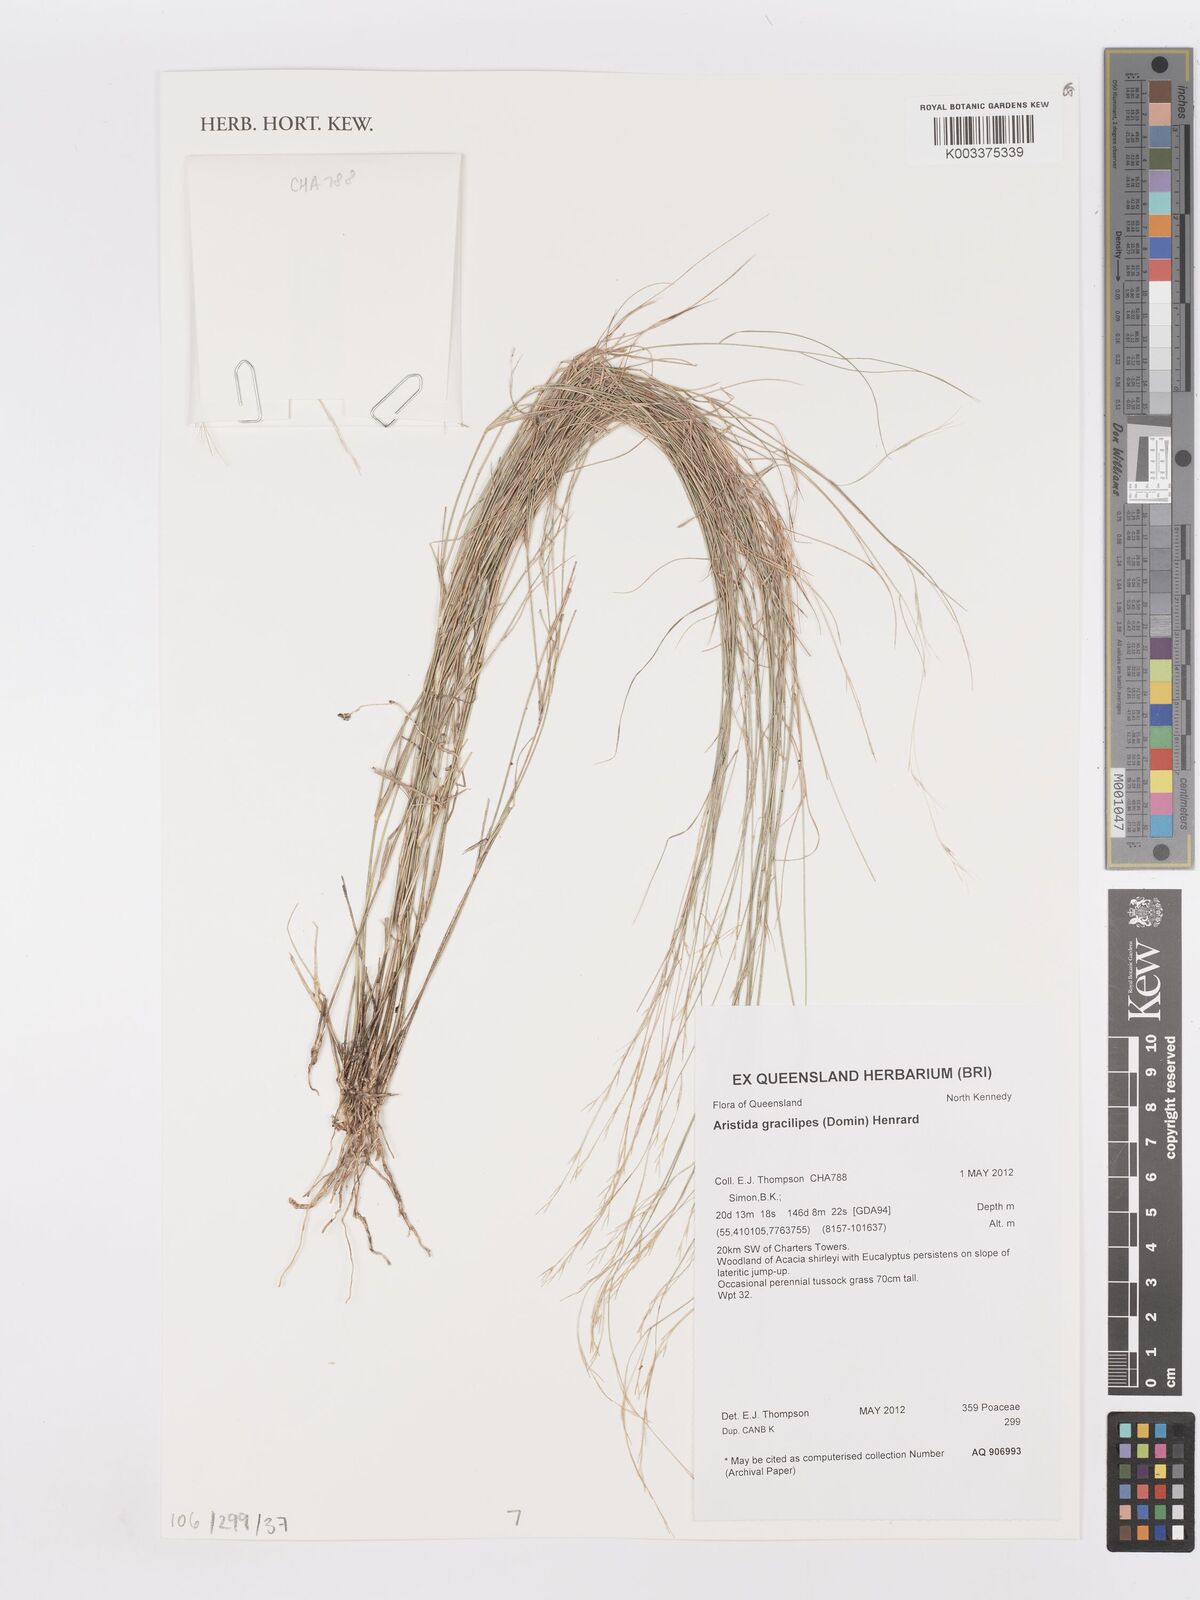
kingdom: Plantae
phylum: Tracheophyta
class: Liliopsida
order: Poales
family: Poaceae
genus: Aristida
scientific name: Aristida gracilipes
